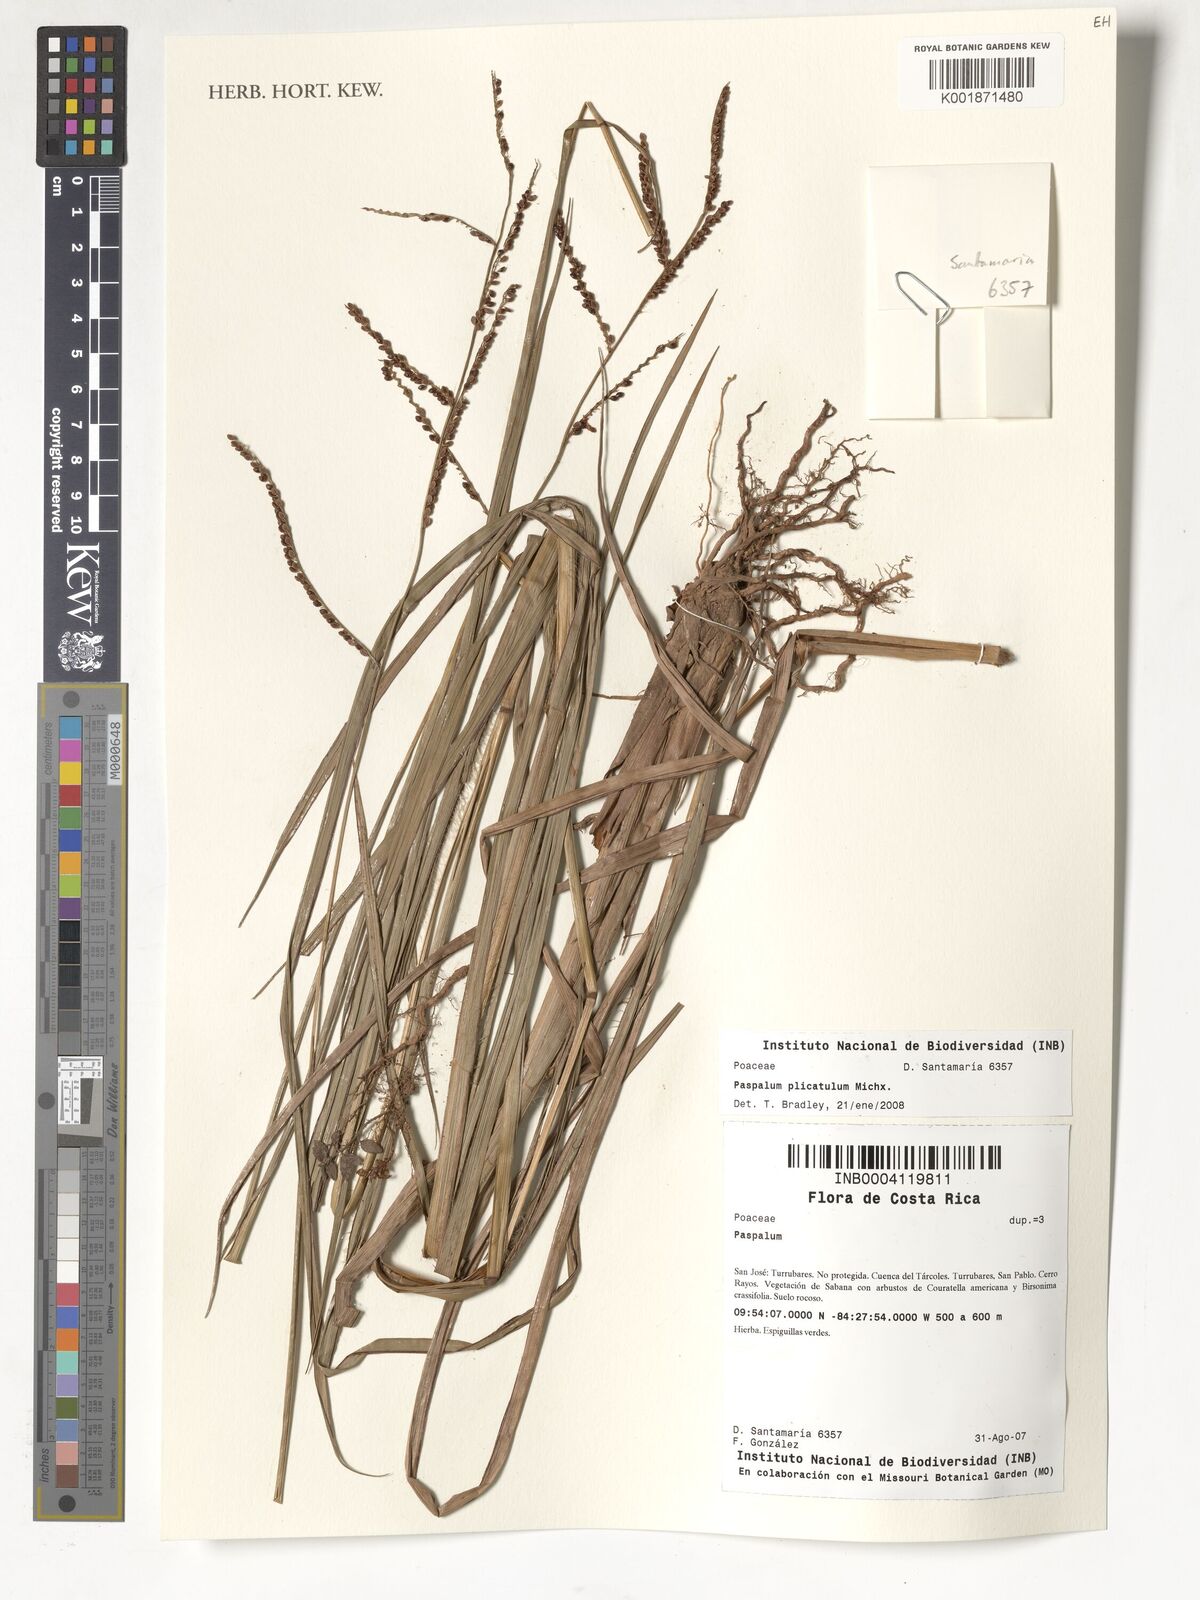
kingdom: Plantae
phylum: Tracheophyta
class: Liliopsida
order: Poales
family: Poaceae
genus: Paspalum
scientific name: Paspalum plicatulum
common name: Top paspalum
